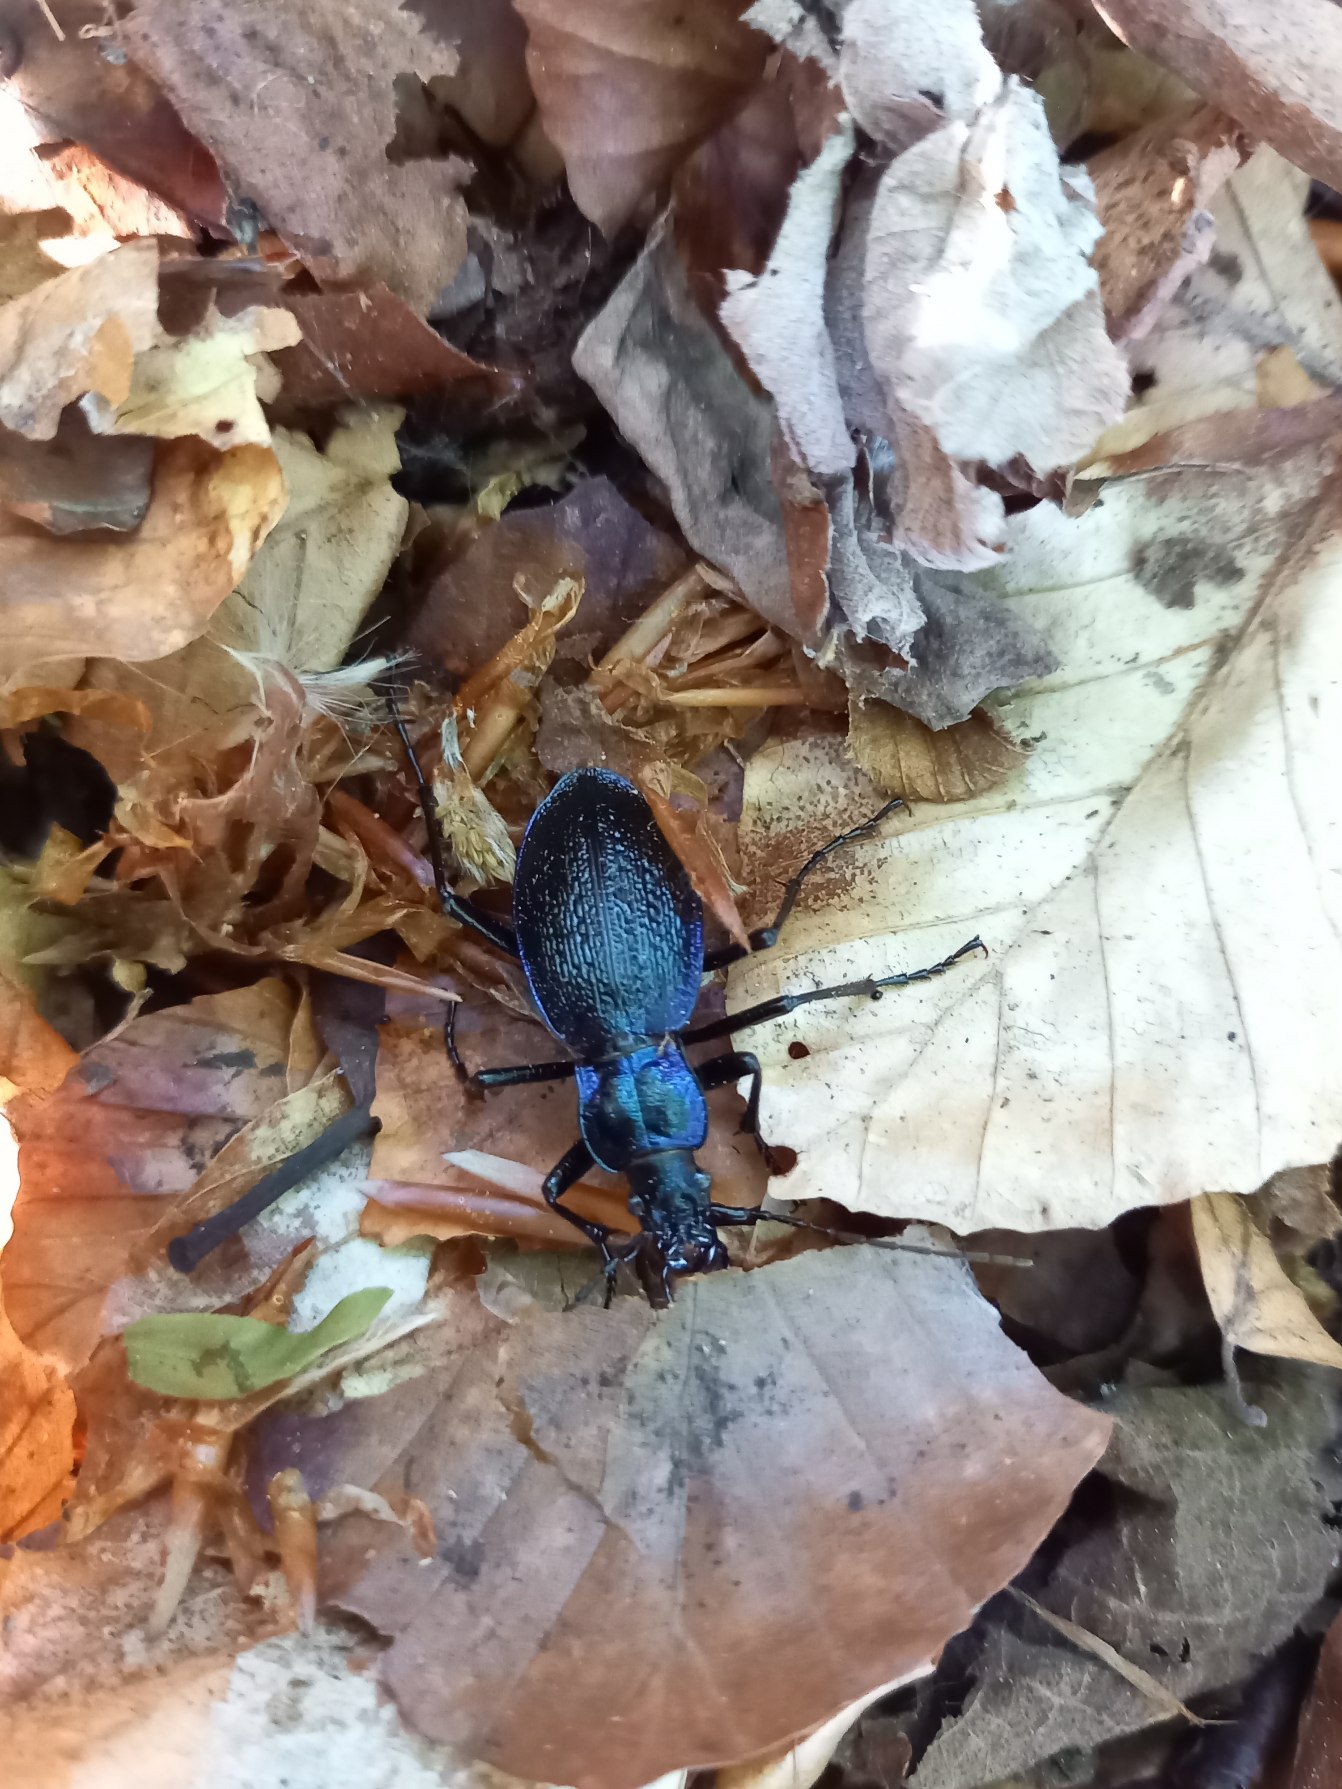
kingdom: Animalia
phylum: Arthropoda
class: Insecta
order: Coleoptera
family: Carabidae
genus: Carabus
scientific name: Carabus intricatus
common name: Bøgeløber
